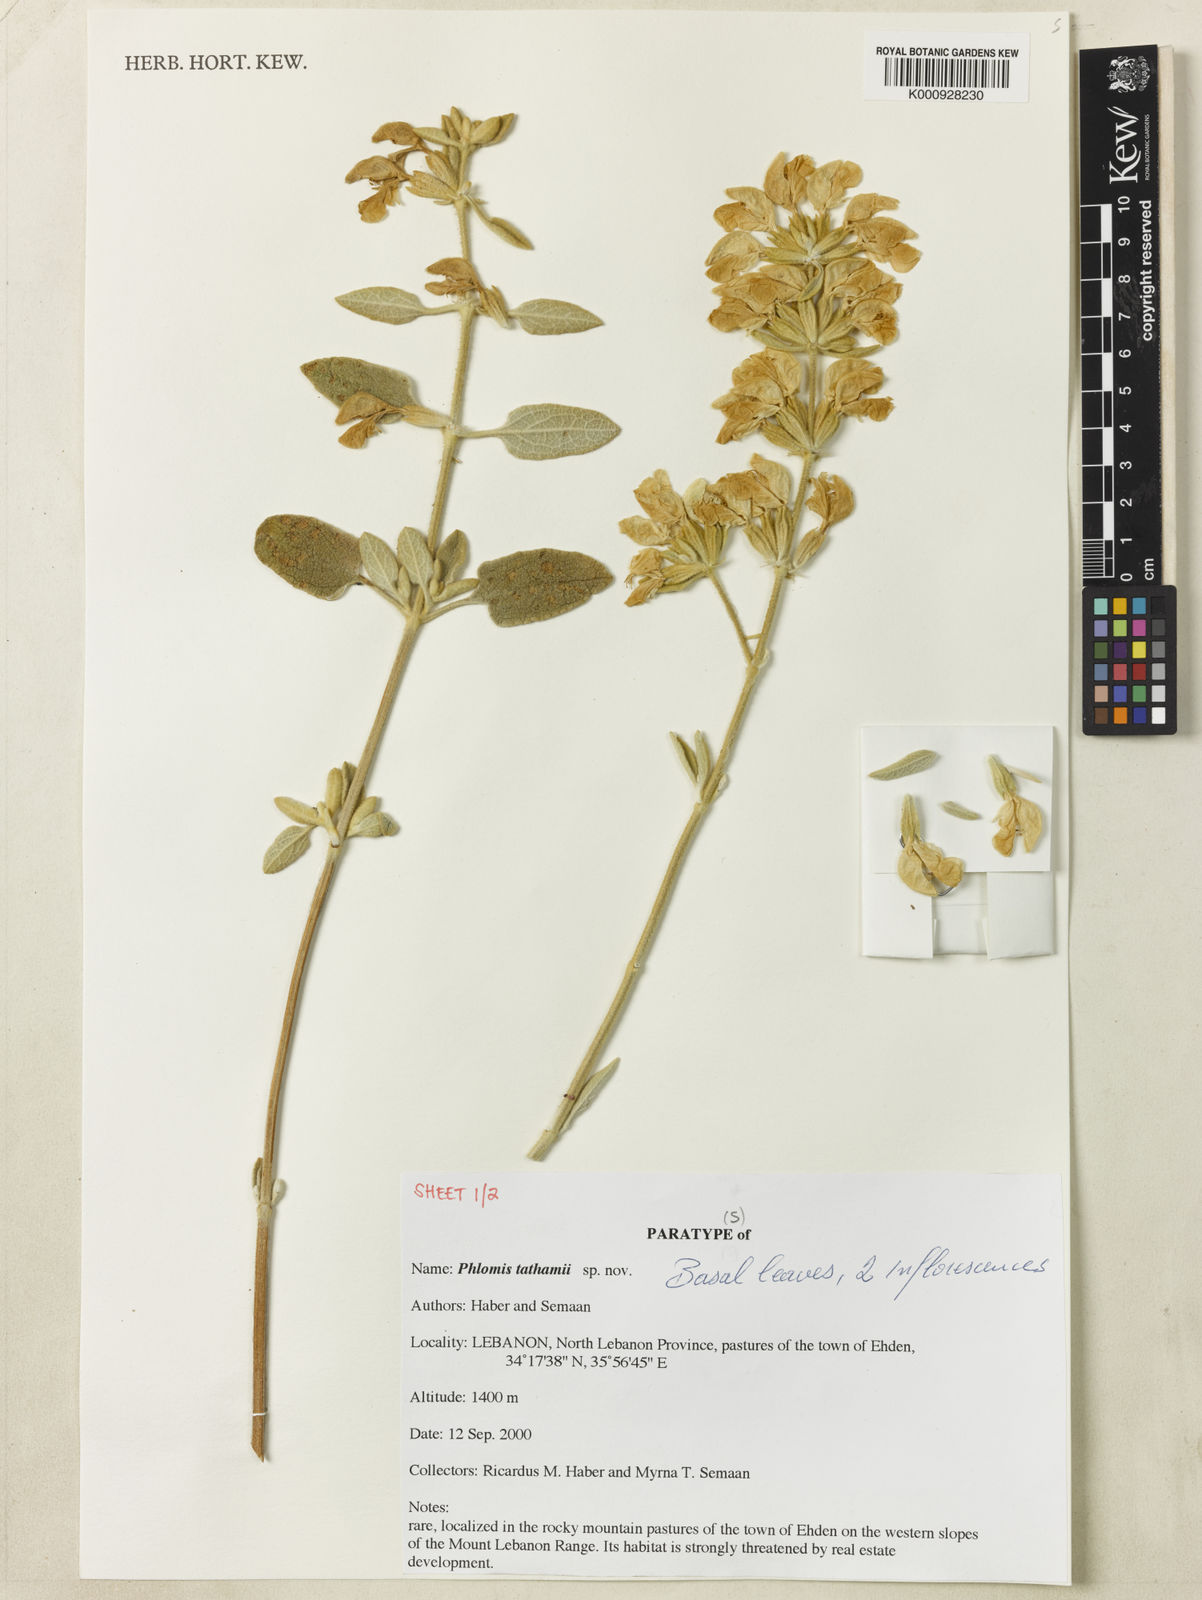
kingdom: Plantae
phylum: Tracheophyta
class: Magnoliopsida
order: Lamiales
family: Lamiaceae
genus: Phlomis
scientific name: Phlomis
